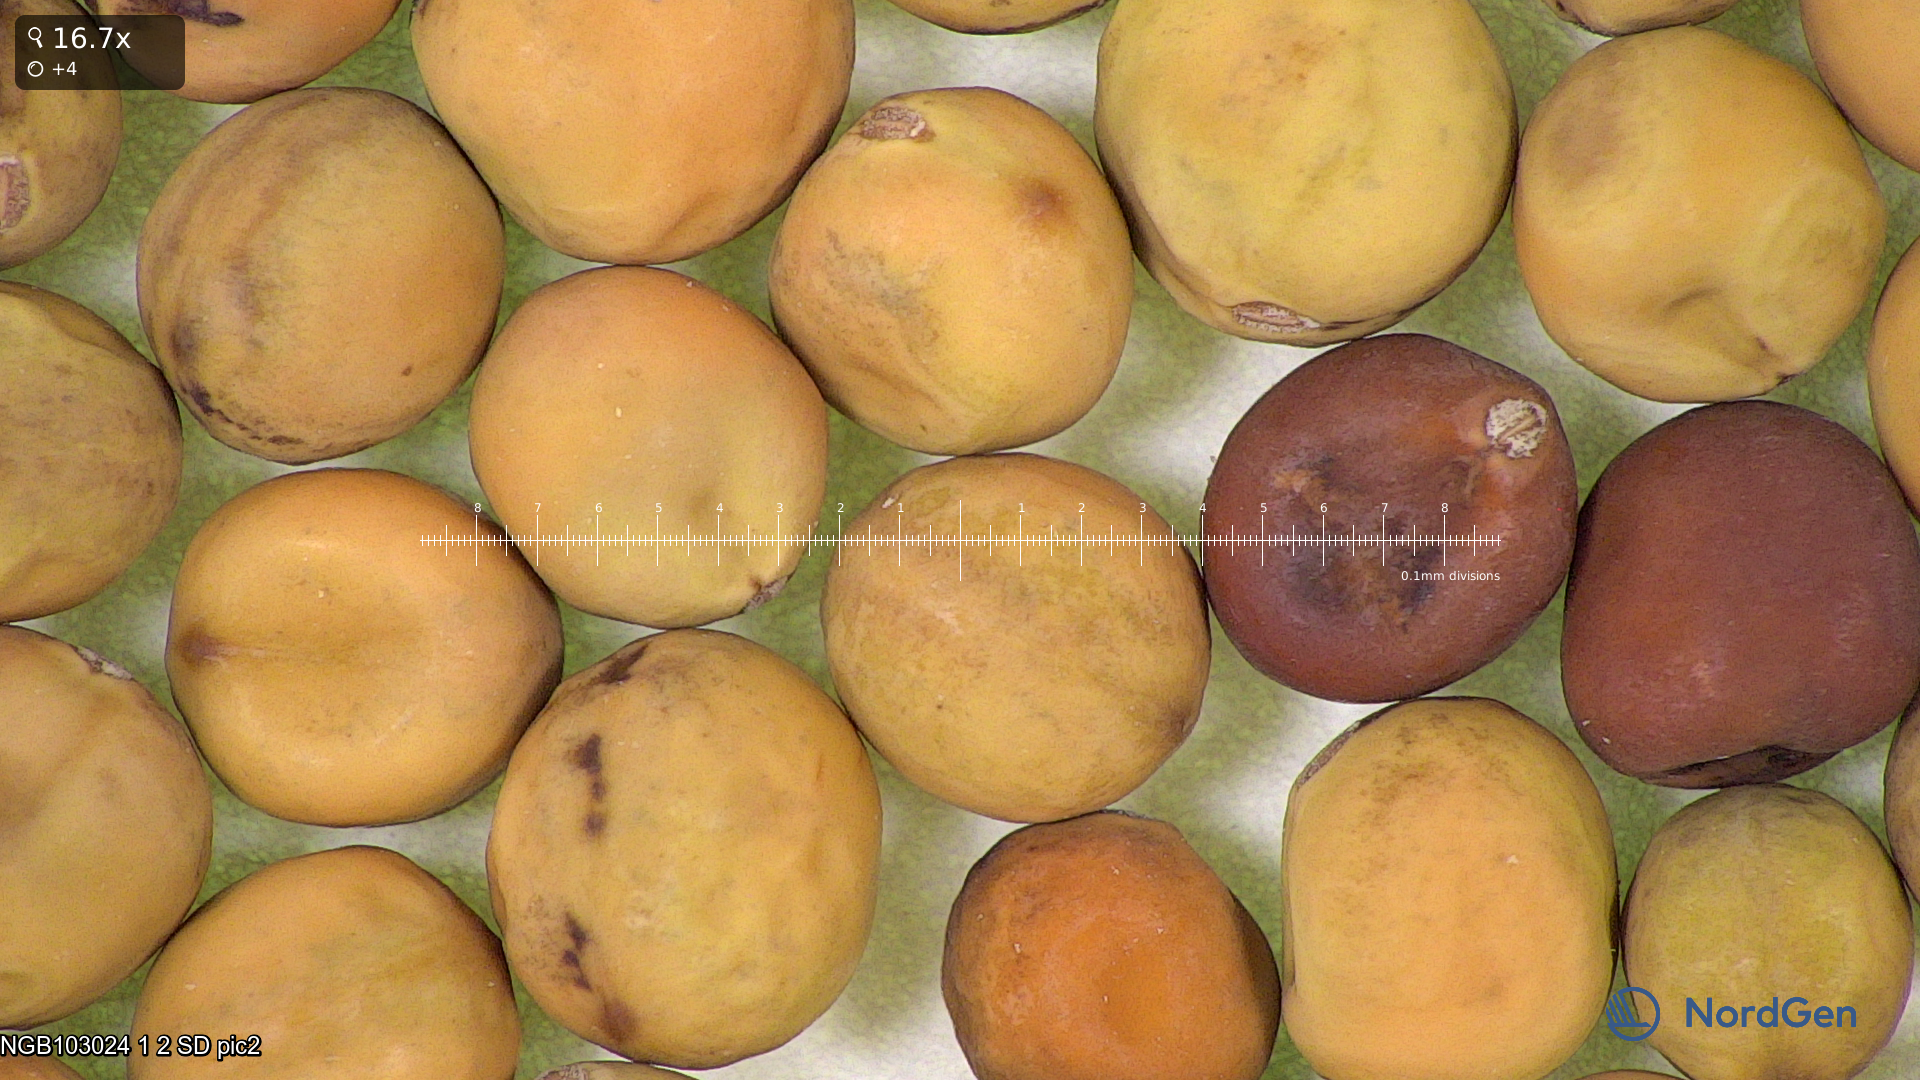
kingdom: Plantae
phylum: Tracheophyta
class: Magnoliopsida
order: Fabales
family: Fabaceae
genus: Lathyrus
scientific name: Lathyrus oleraceus
